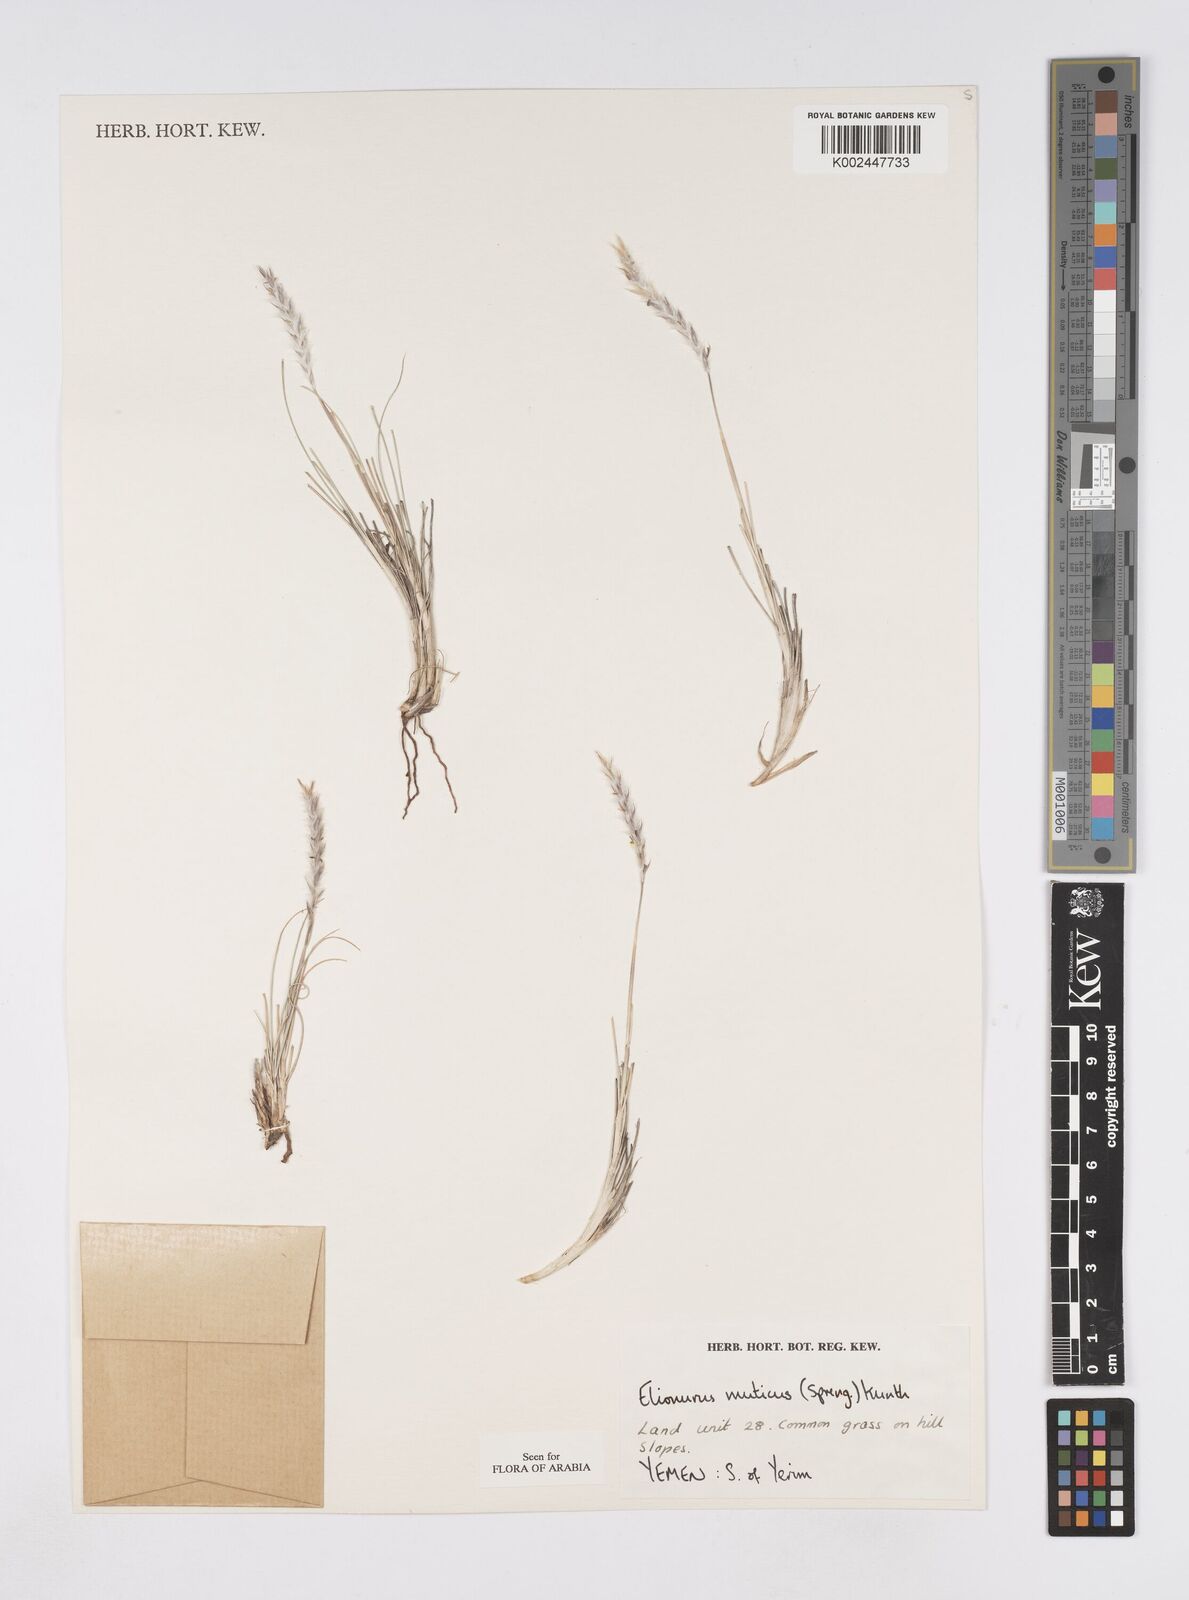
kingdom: Plantae
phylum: Tracheophyta
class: Liliopsida
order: Poales
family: Poaceae
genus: Elionurus
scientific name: Elionurus muticus
